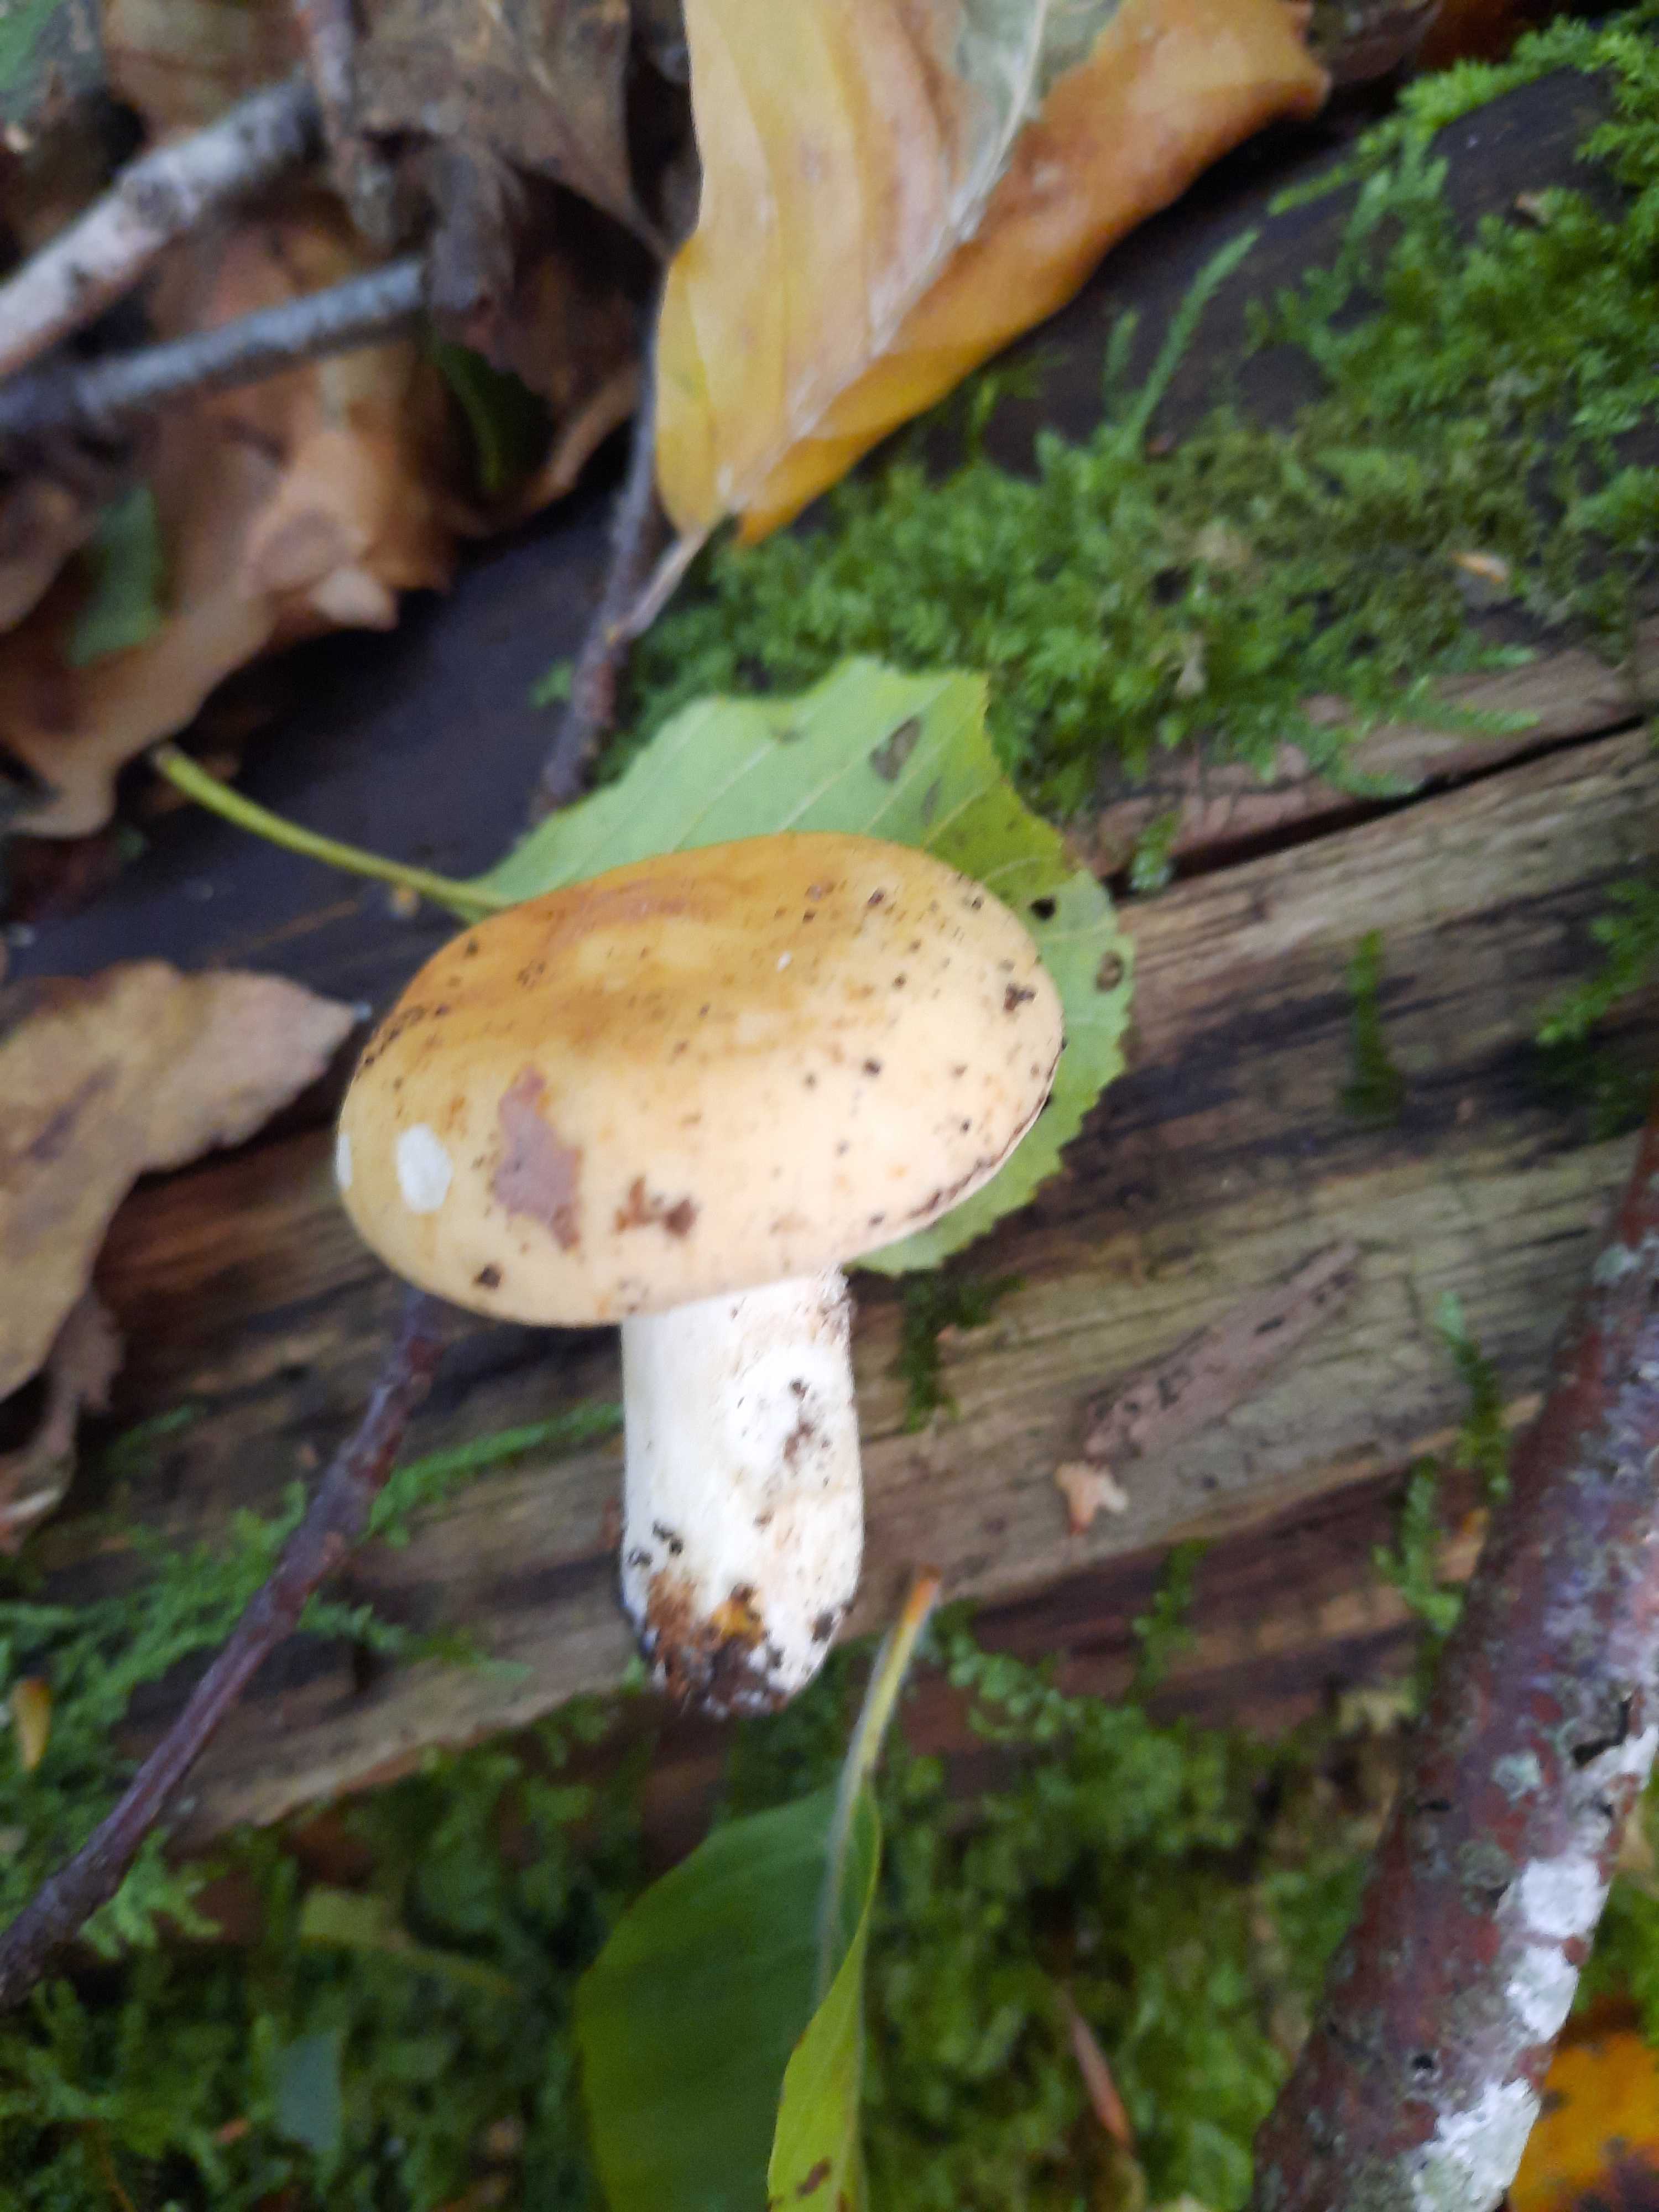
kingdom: Fungi
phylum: Basidiomycota
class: Agaricomycetes
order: Russulales
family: Russulaceae
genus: Russula
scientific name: Russula ochroleuca
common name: okkergul skørhat
